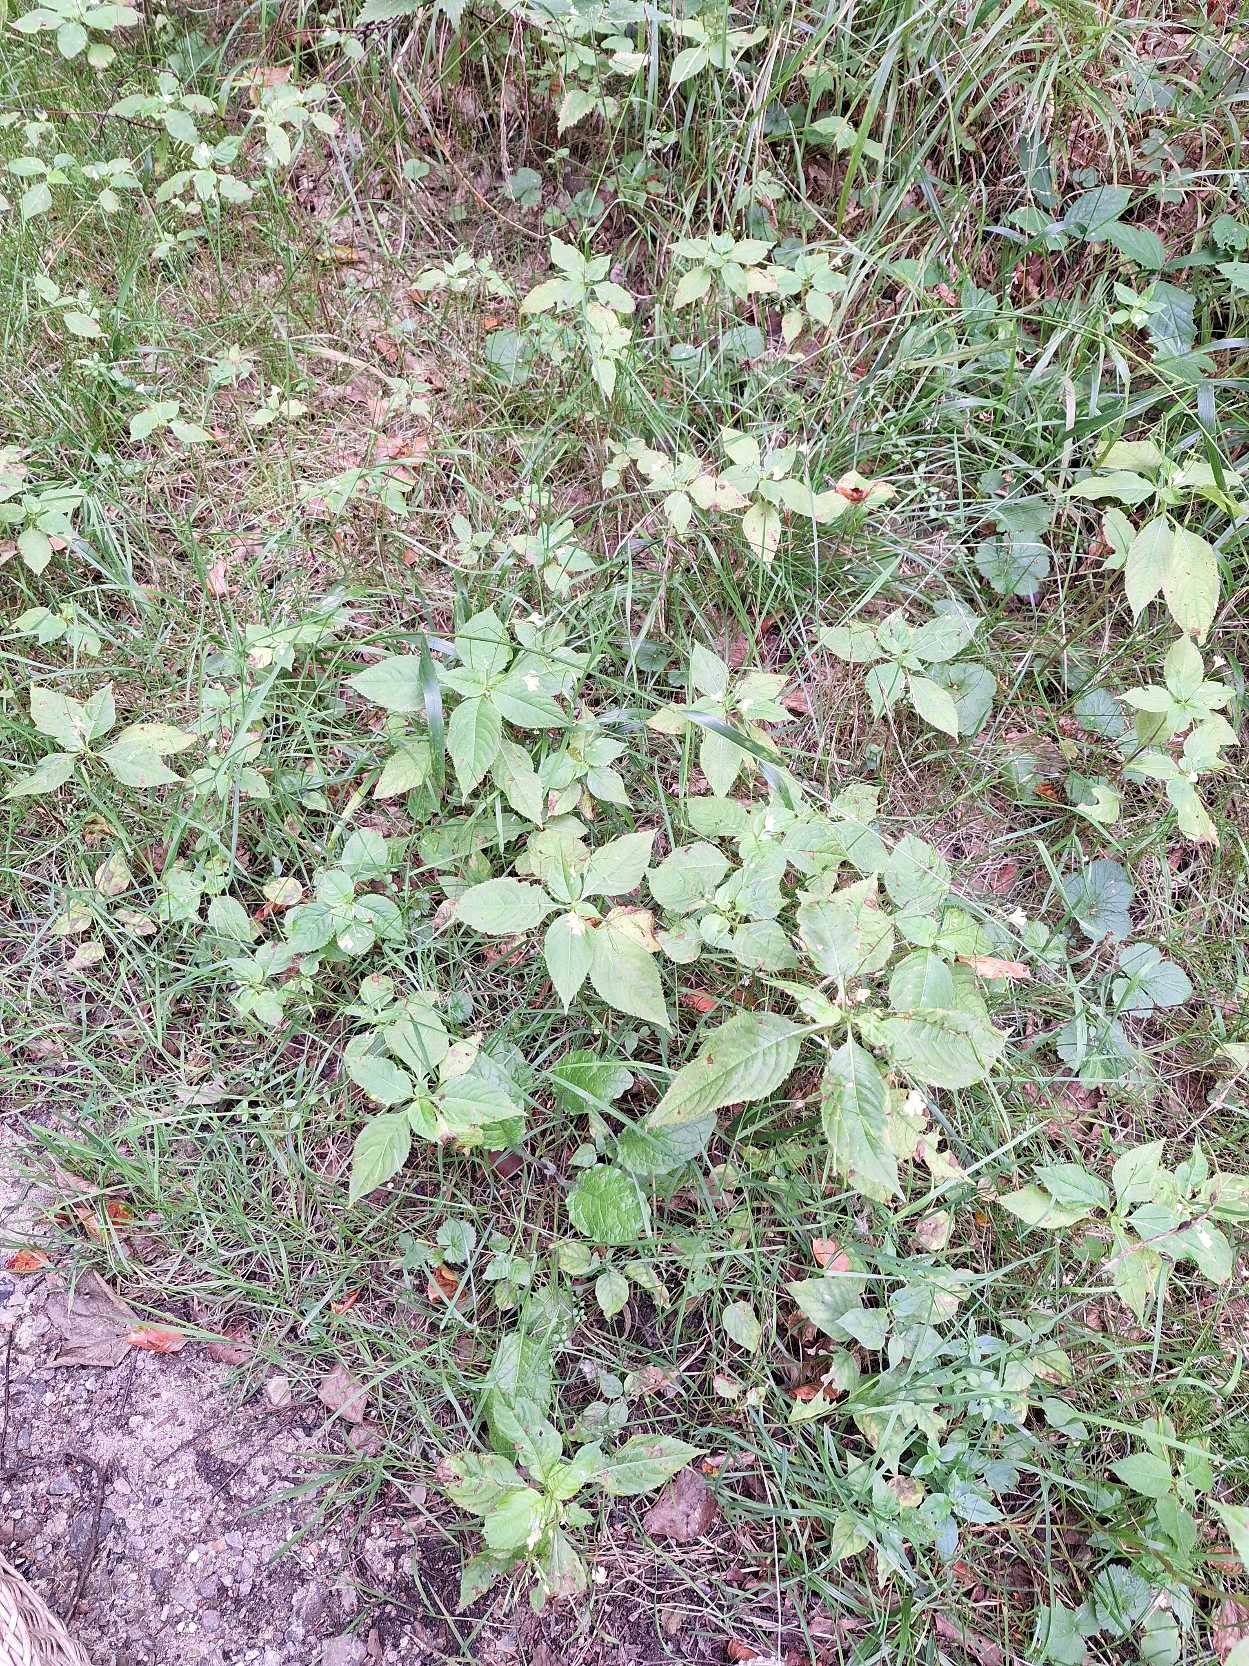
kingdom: Plantae
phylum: Tracheophyta
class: Magnoliopsida
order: Ericales
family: Balsaminaceae
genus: Impatiens
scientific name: Impatiens parviflora
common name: Småblomstret balsamin
